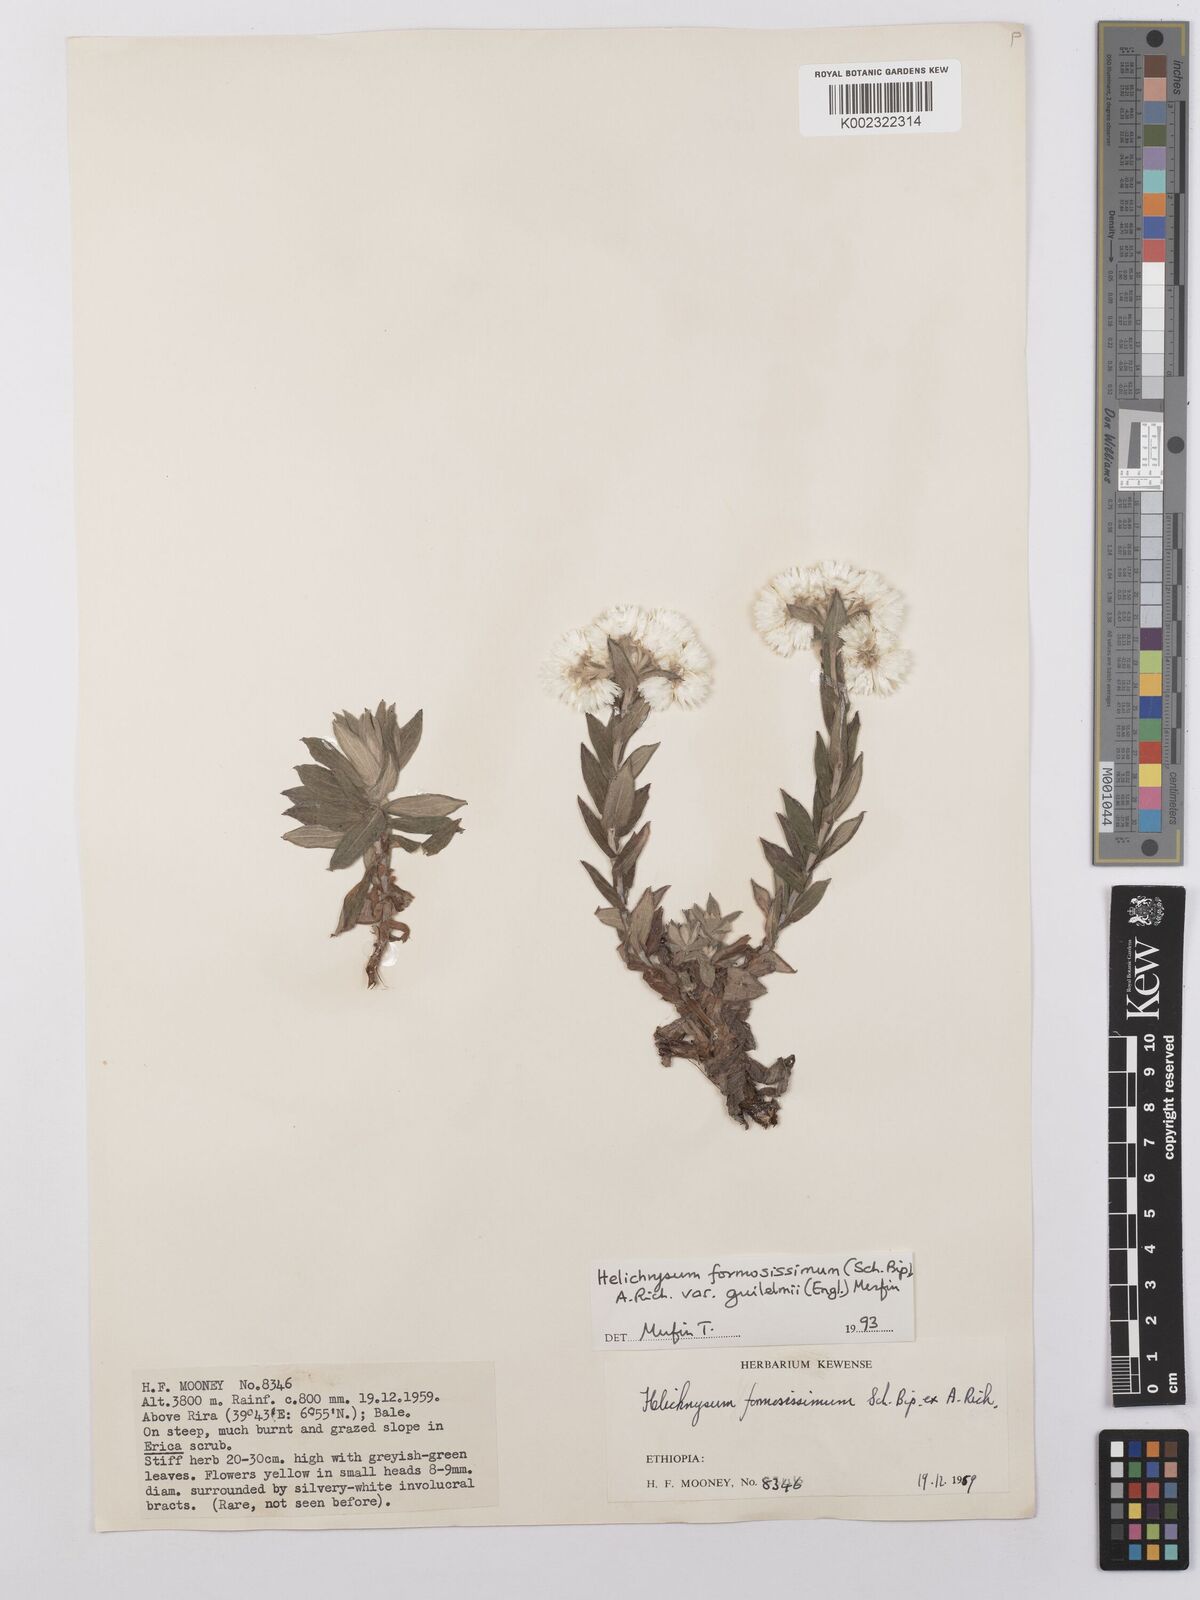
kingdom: Plantae
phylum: Tracheophyta
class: Magnoliopsida
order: Asterales
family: Asteraceae
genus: Helichrysum
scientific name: Helichrysum formosissimum
